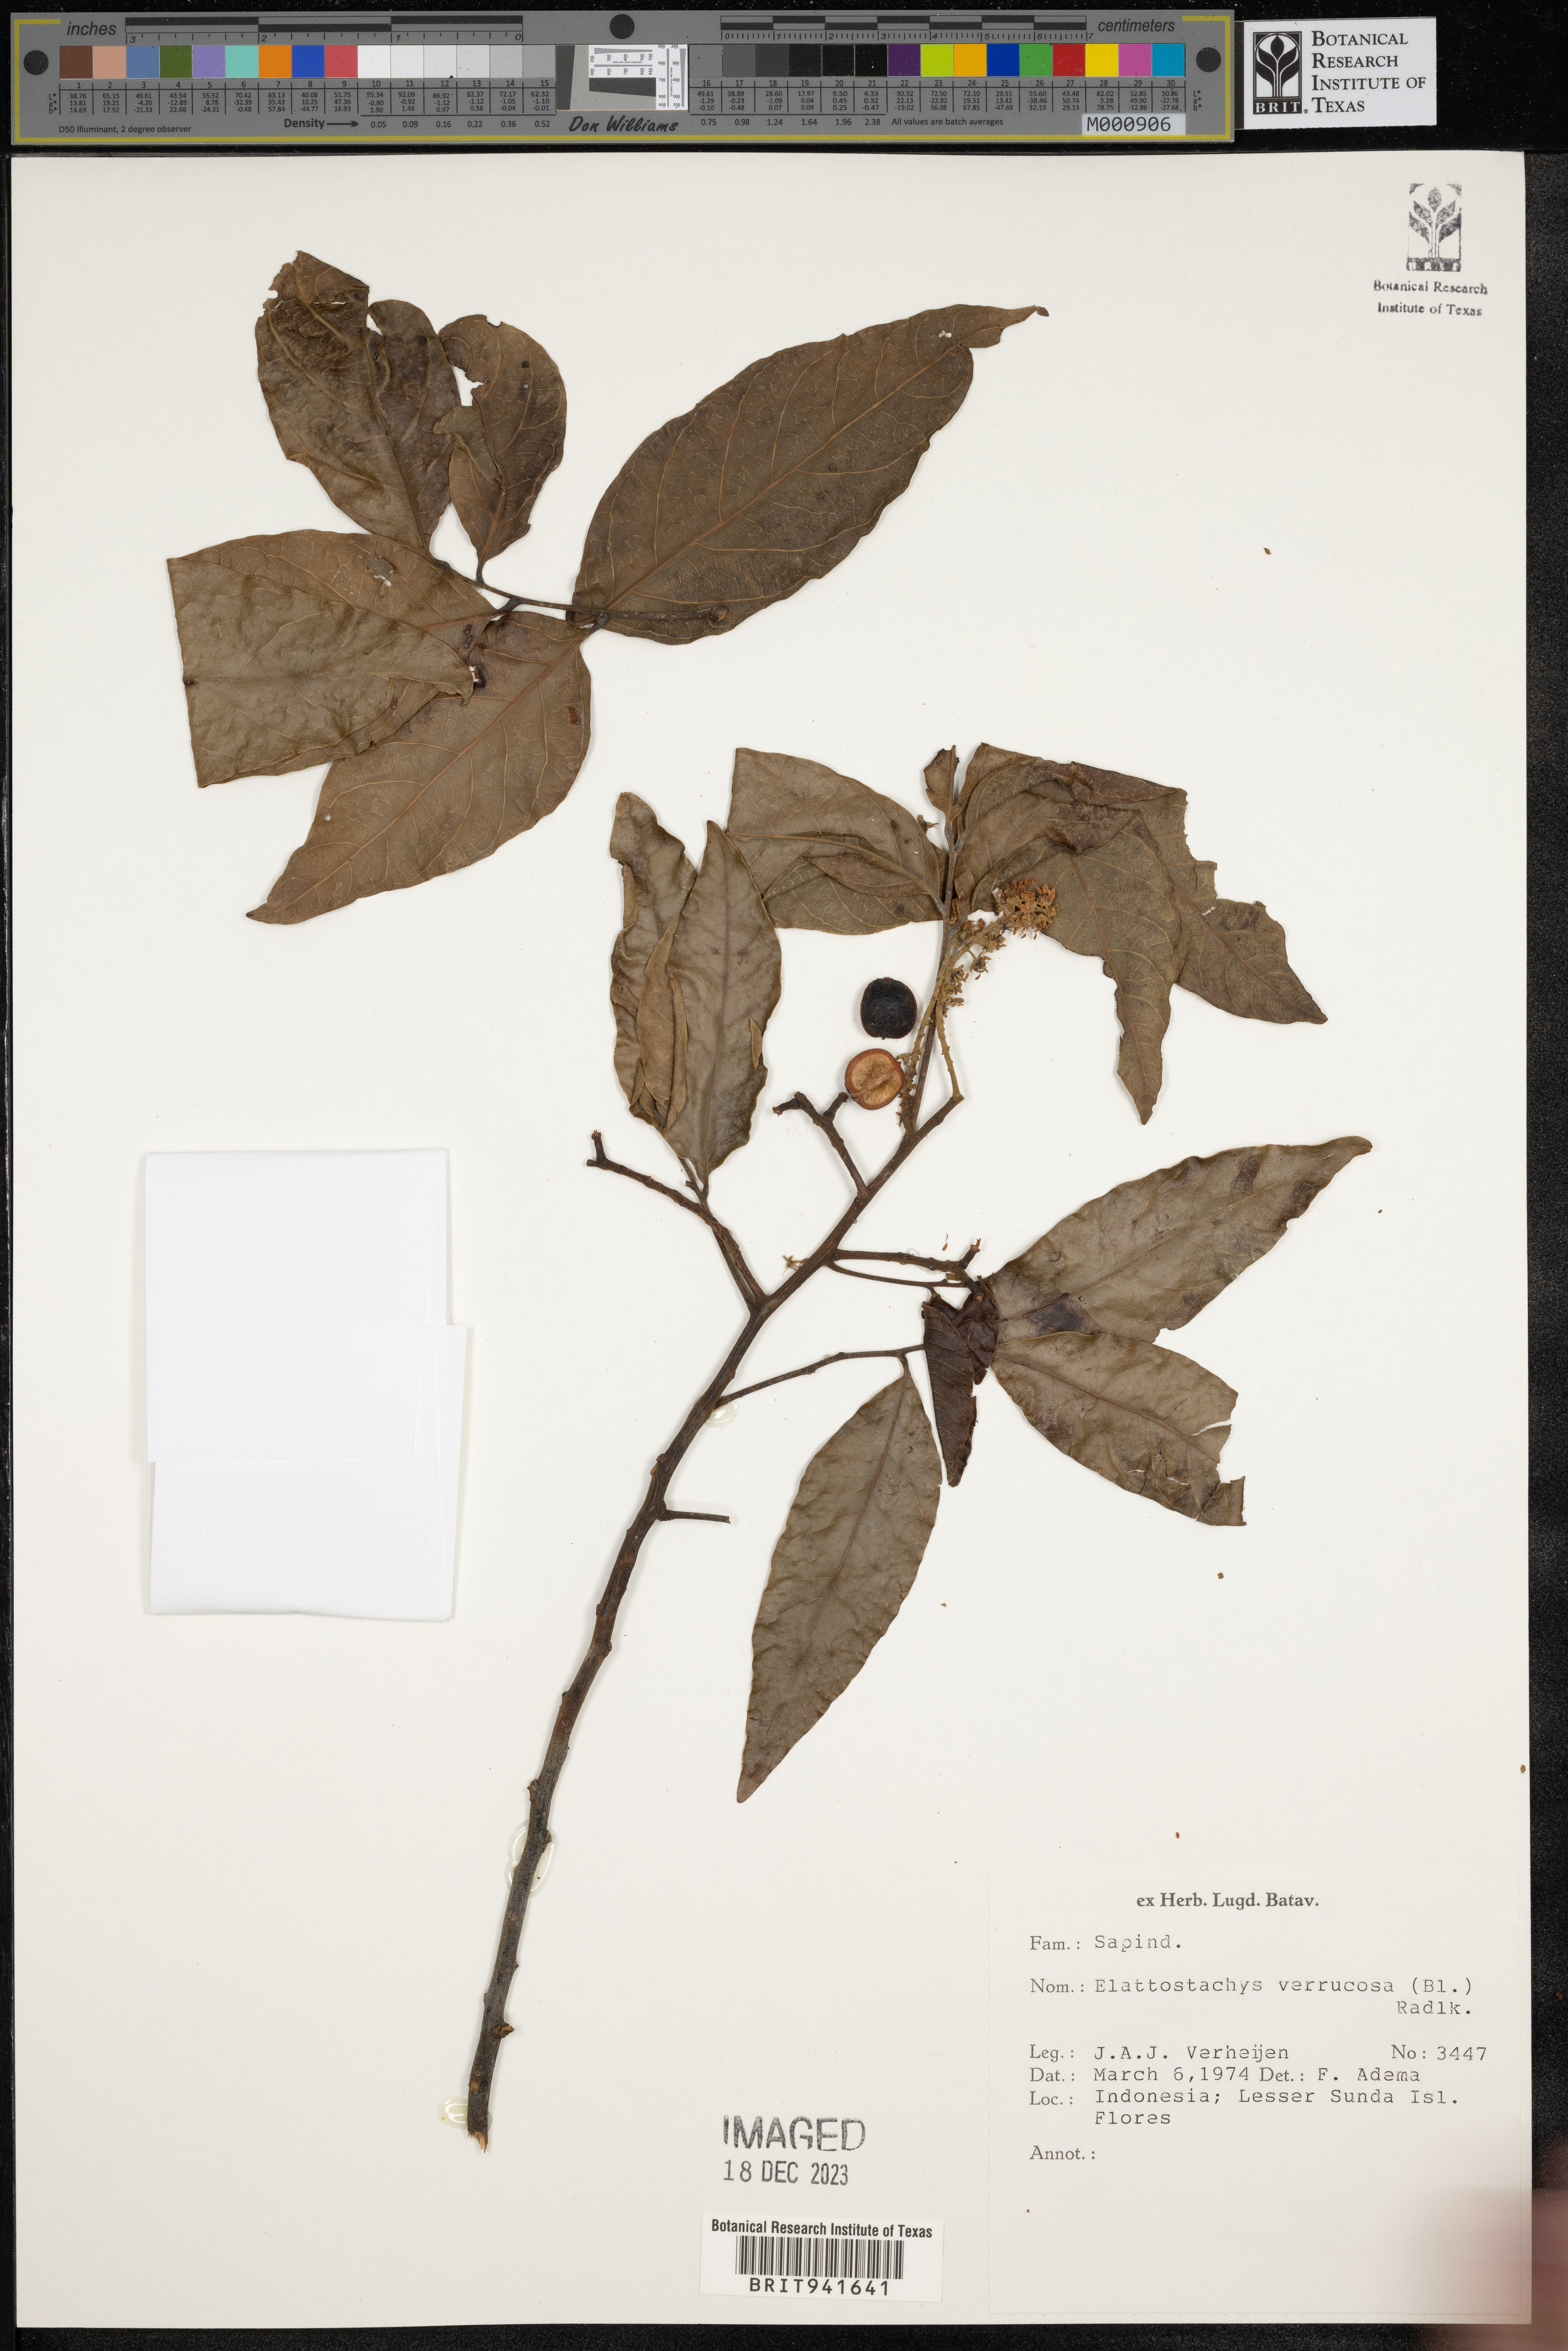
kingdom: Plantae
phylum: Tracheophyta
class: Magnoliopsida
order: Sapindales
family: Sapindaceae
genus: Elattostachys
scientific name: Elattostachys
